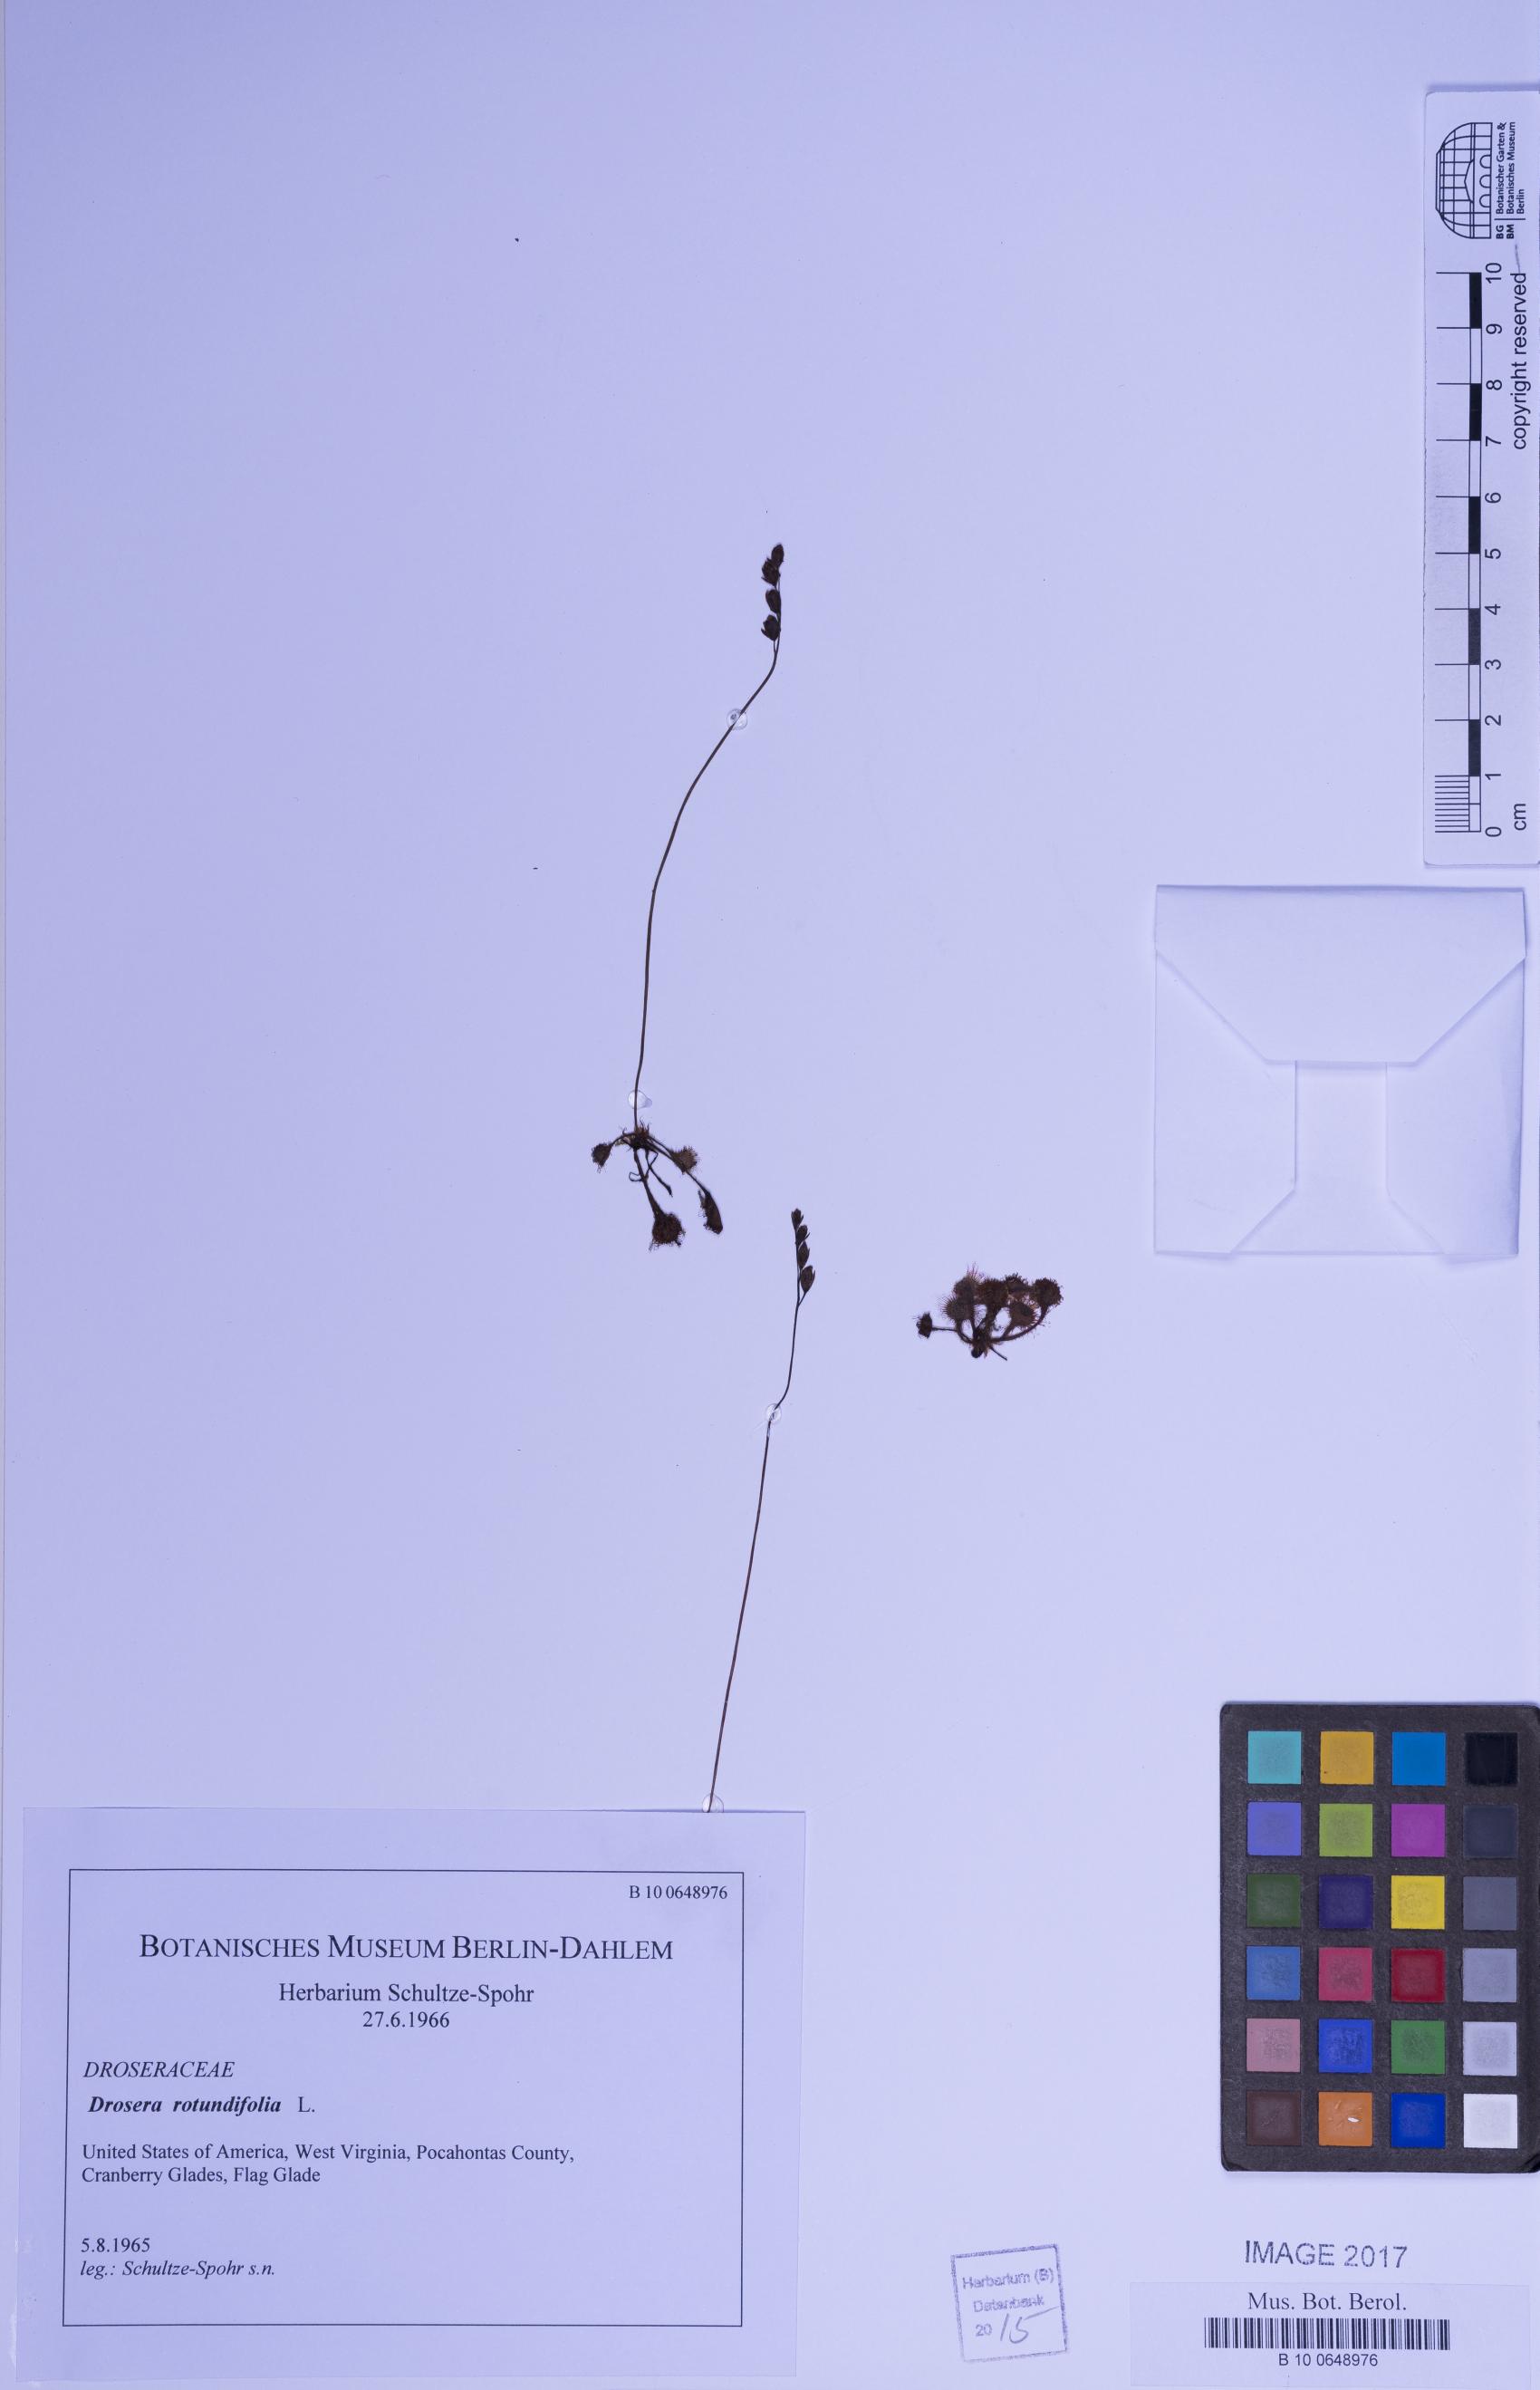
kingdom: Plantae
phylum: Tracheophyta
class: Magnoliopsida
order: Caryophyllales
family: Droseraceae
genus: Drosera
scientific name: Drosera rotundifolia
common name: Round-leaved sundew
